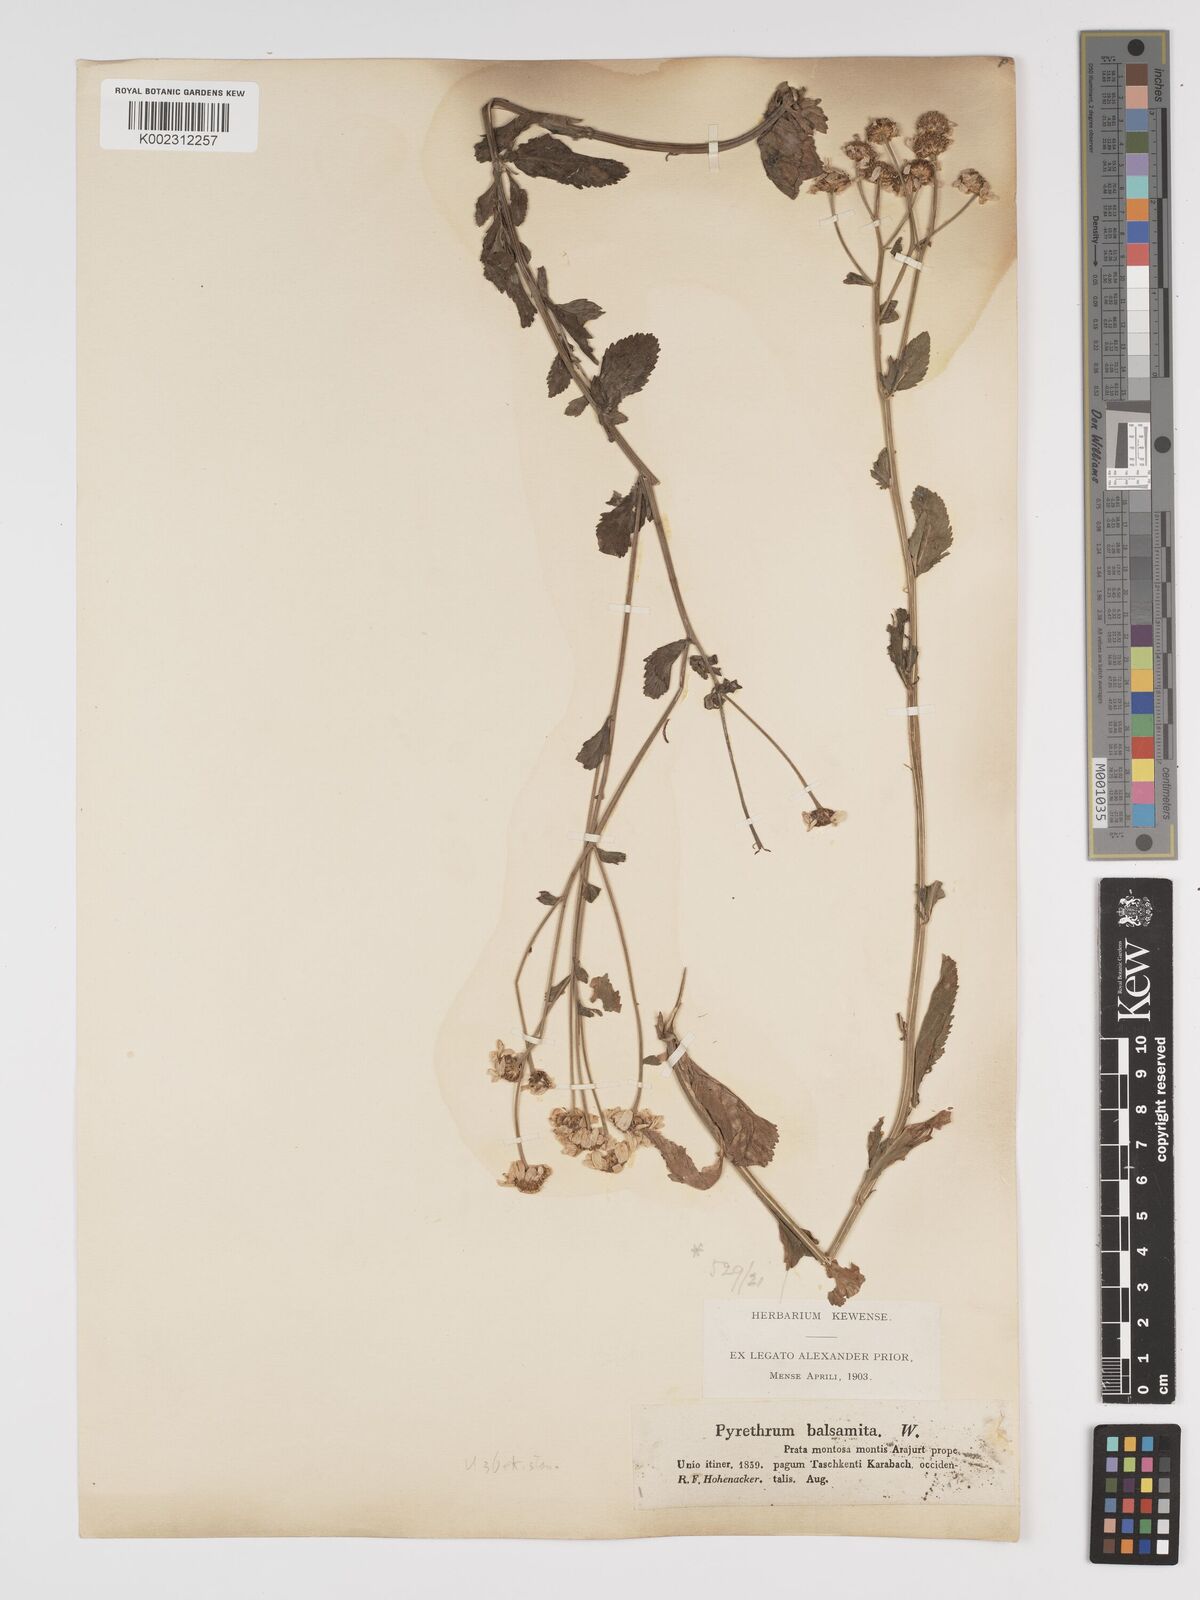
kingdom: Plantae
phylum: Tracheophyta
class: Magnoliopsida
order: Asterales
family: Asteraceae
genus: Tanacetum
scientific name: Tanacetum balsamita
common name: Costmary
